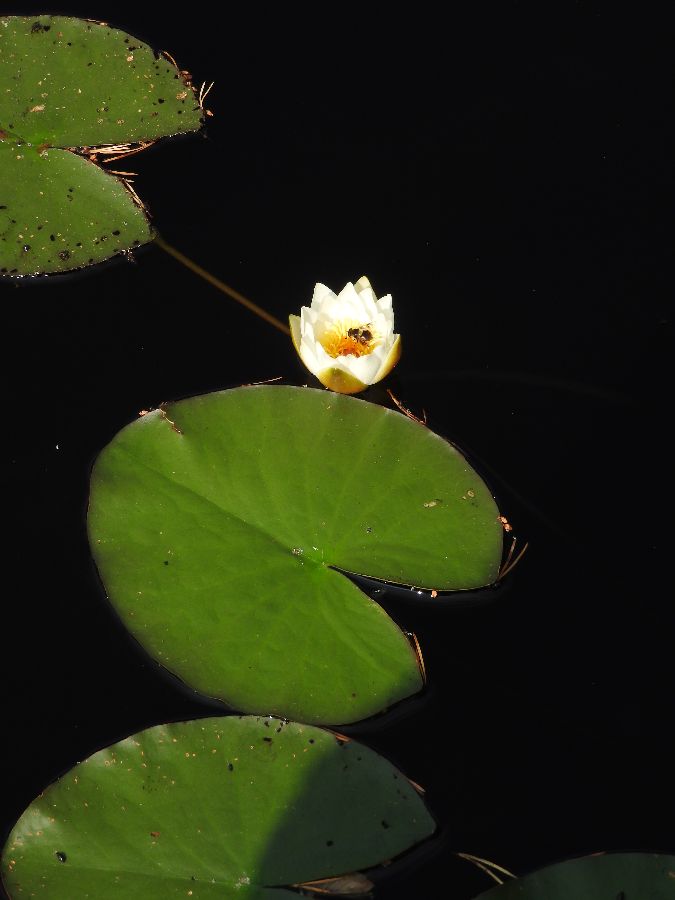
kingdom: Plantae
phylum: Tracheophyta
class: Magnoliopsida
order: Nymphaeales
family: Nymphaeaceae
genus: Nymphaea
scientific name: Nymphaea candida
